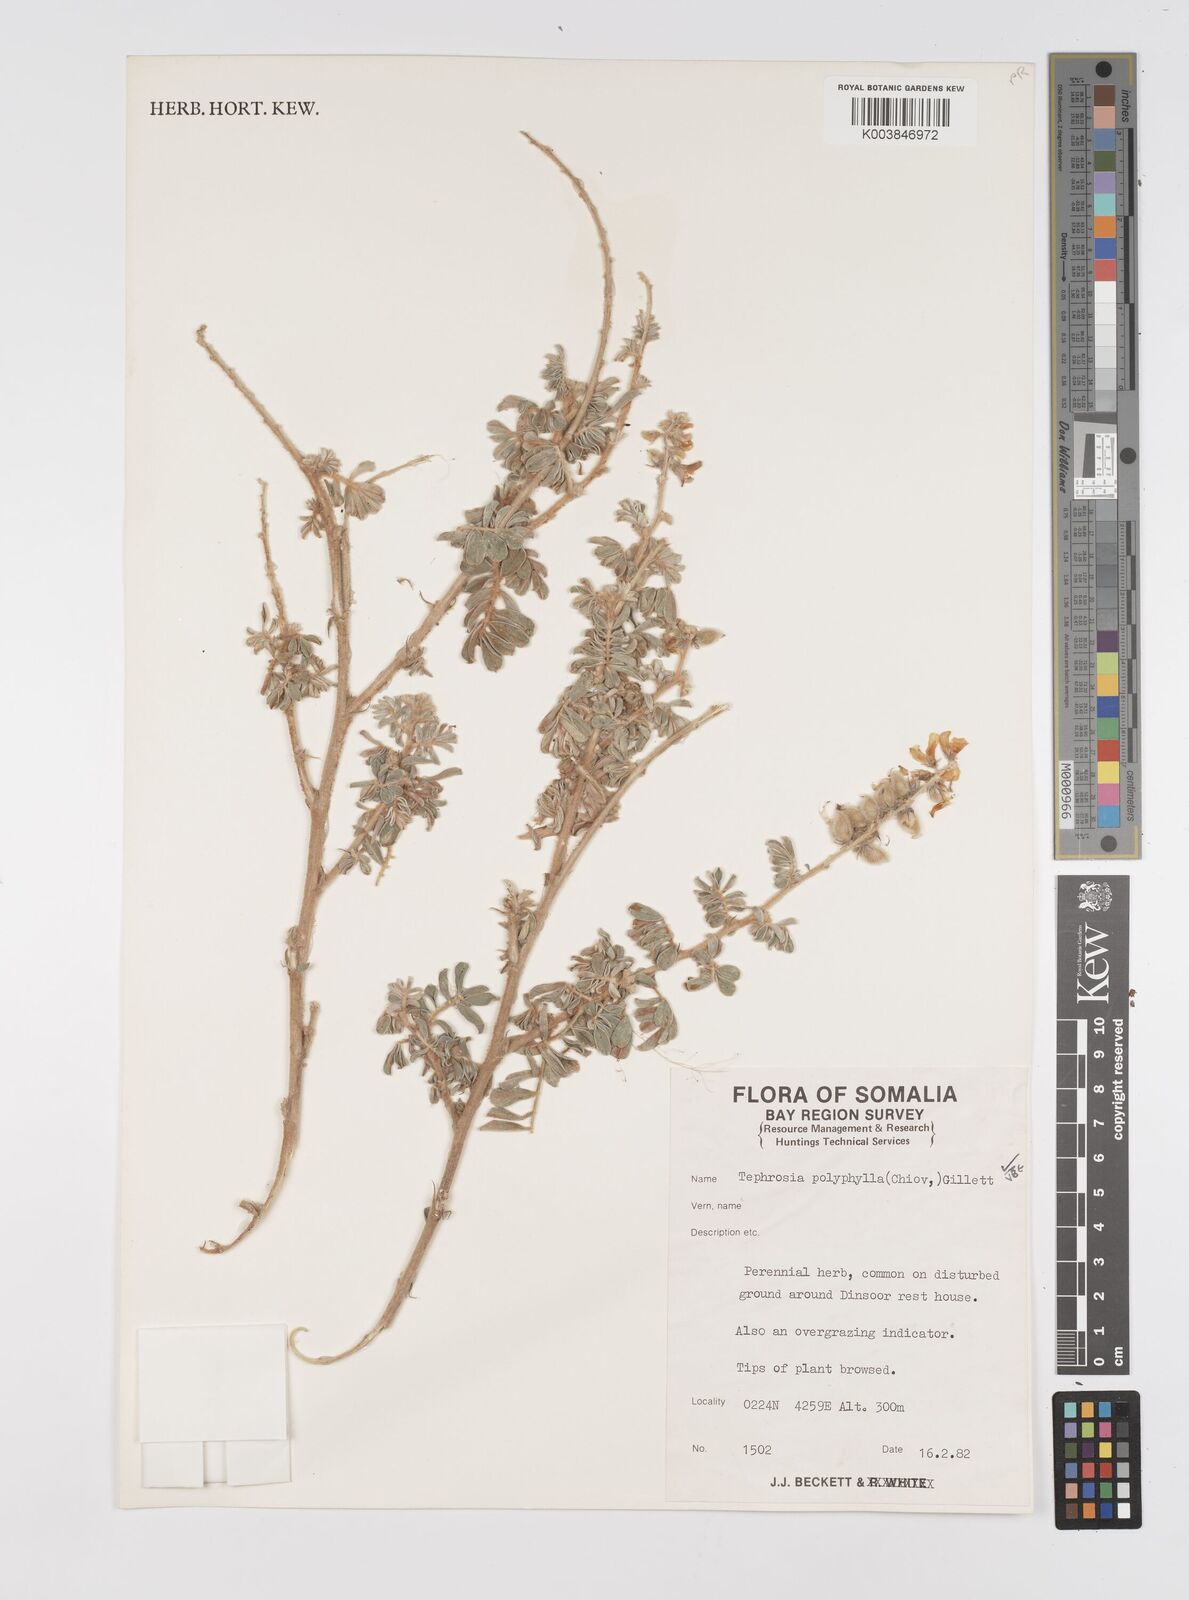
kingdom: Plantae
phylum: Tracheophyta
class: Magnoliopsida
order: Fabales
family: Fabaceae
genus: Tephrosia
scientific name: Tephrosia polyphylla
